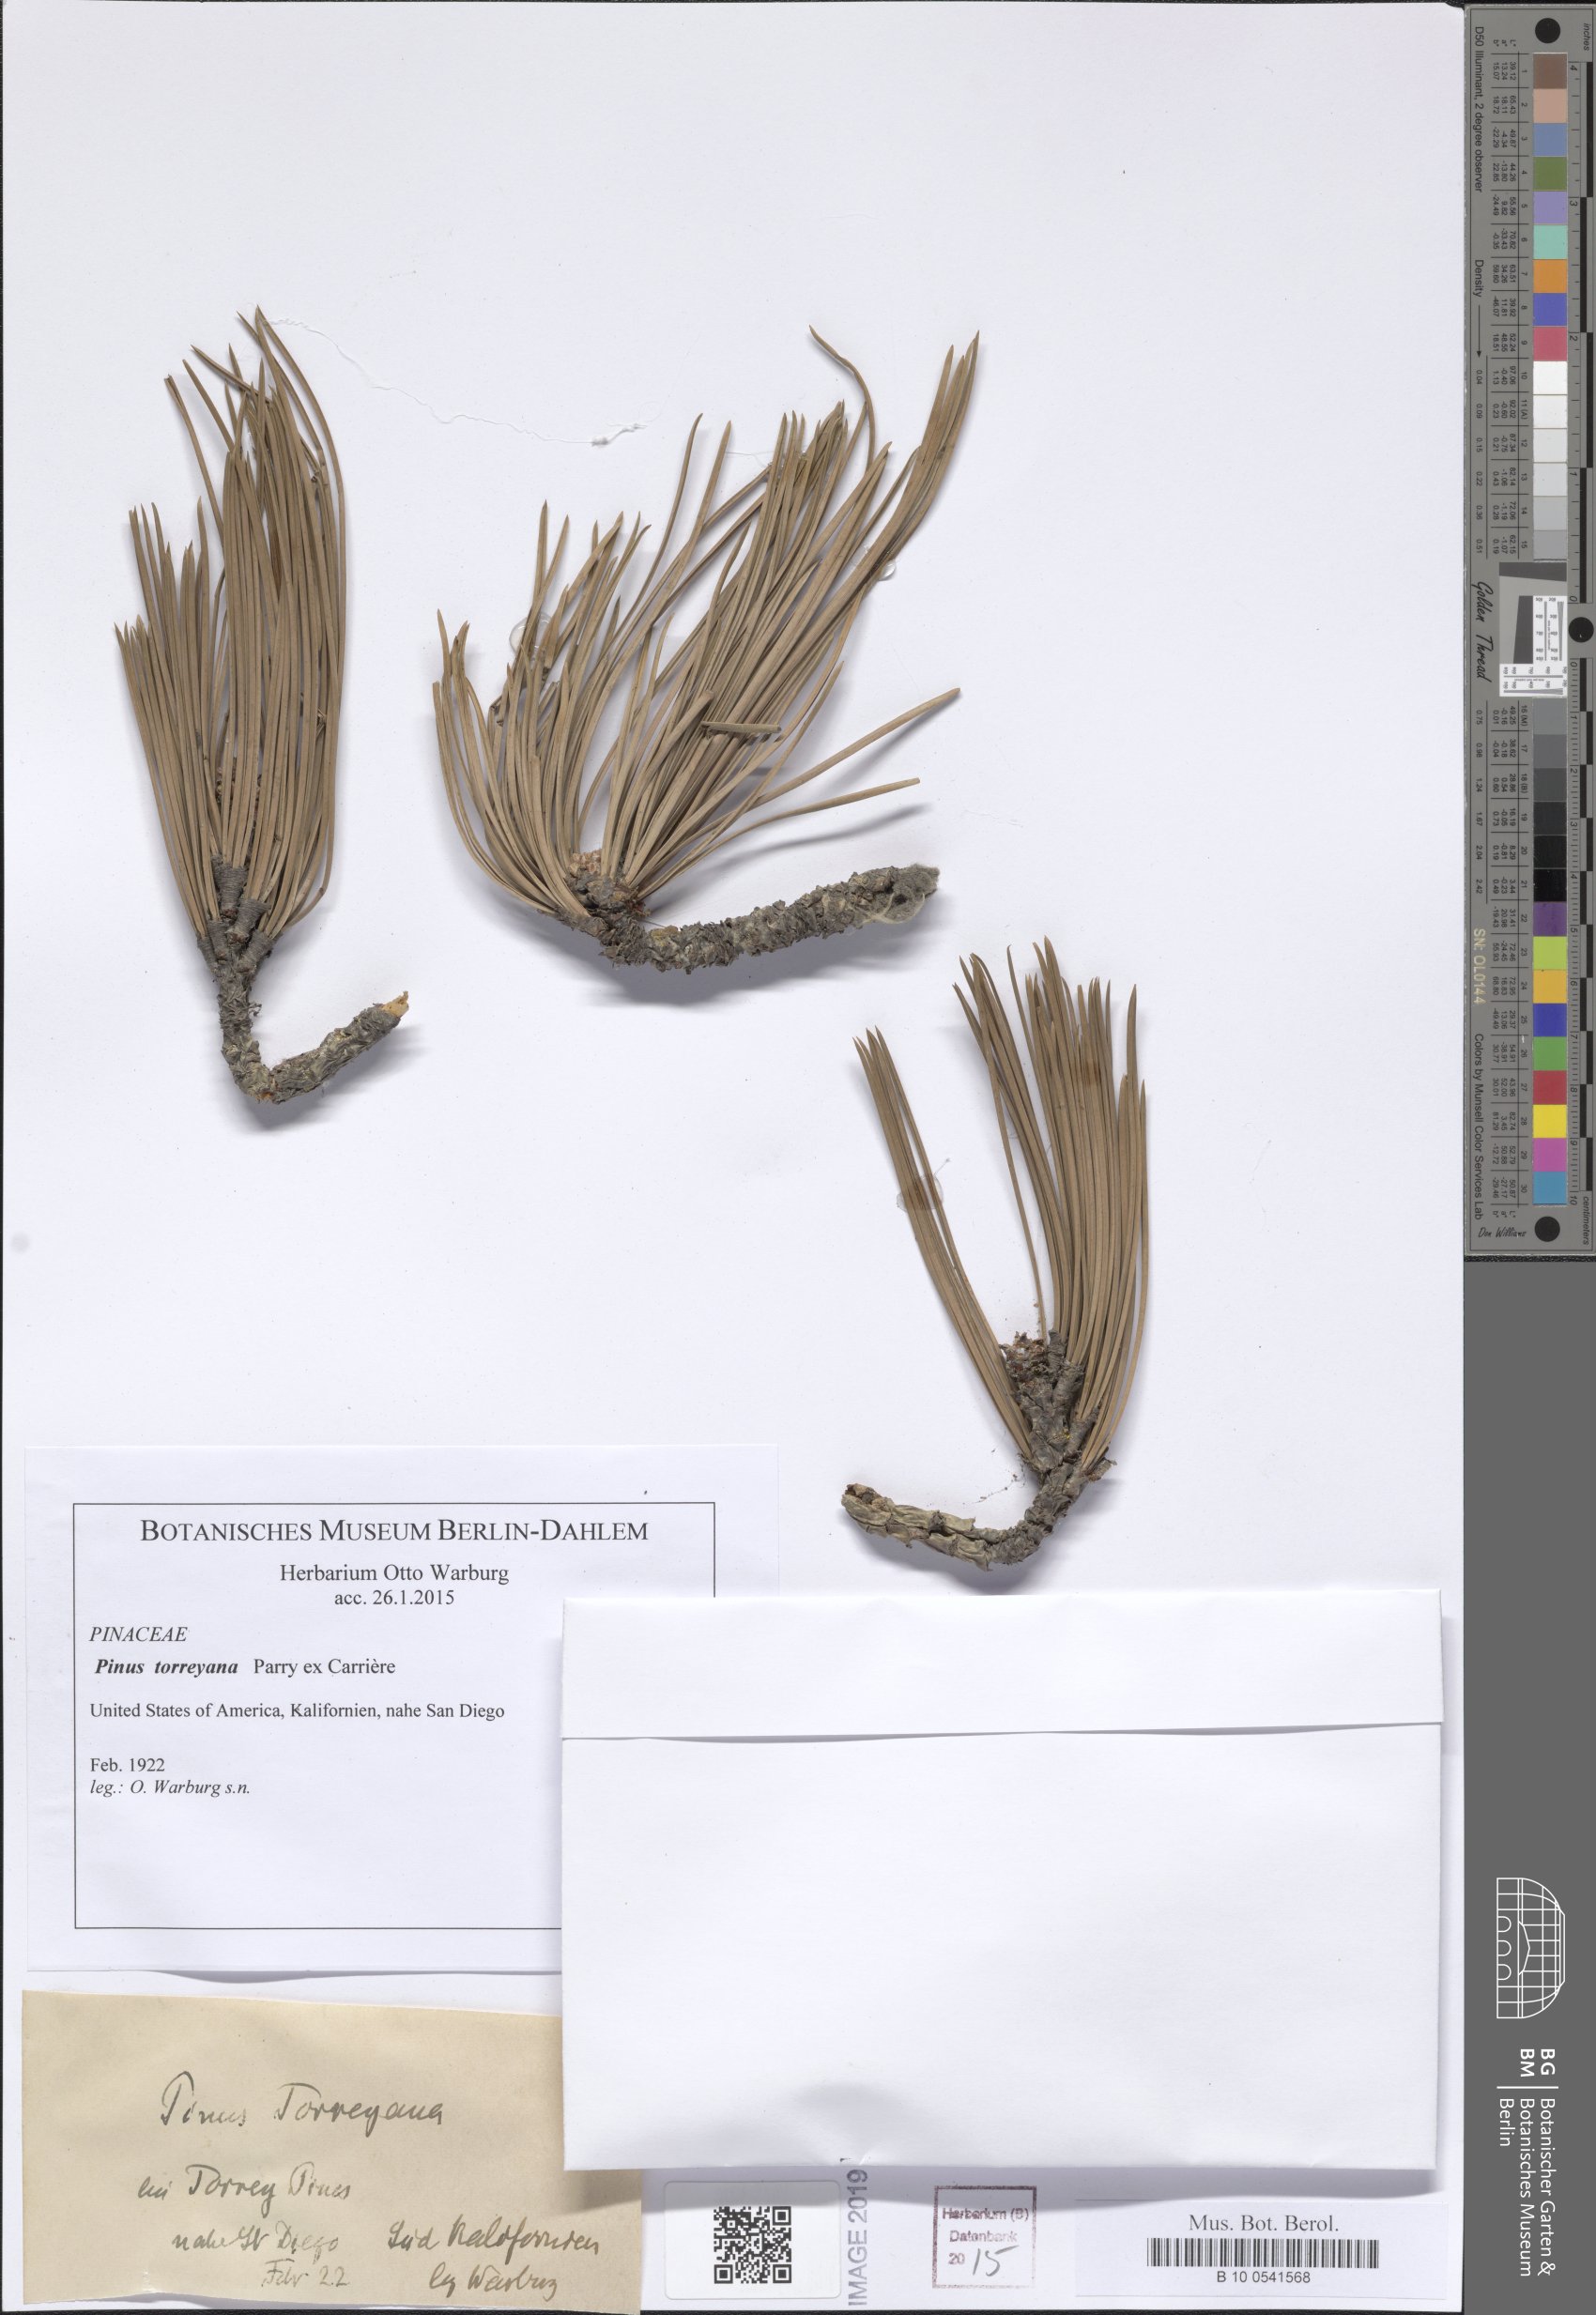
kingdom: Plantae
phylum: Tracheophyta
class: Pinopsida
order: Pinales
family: Pinaceae
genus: Pinus
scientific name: Pinus torreyana
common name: Torrey pine
